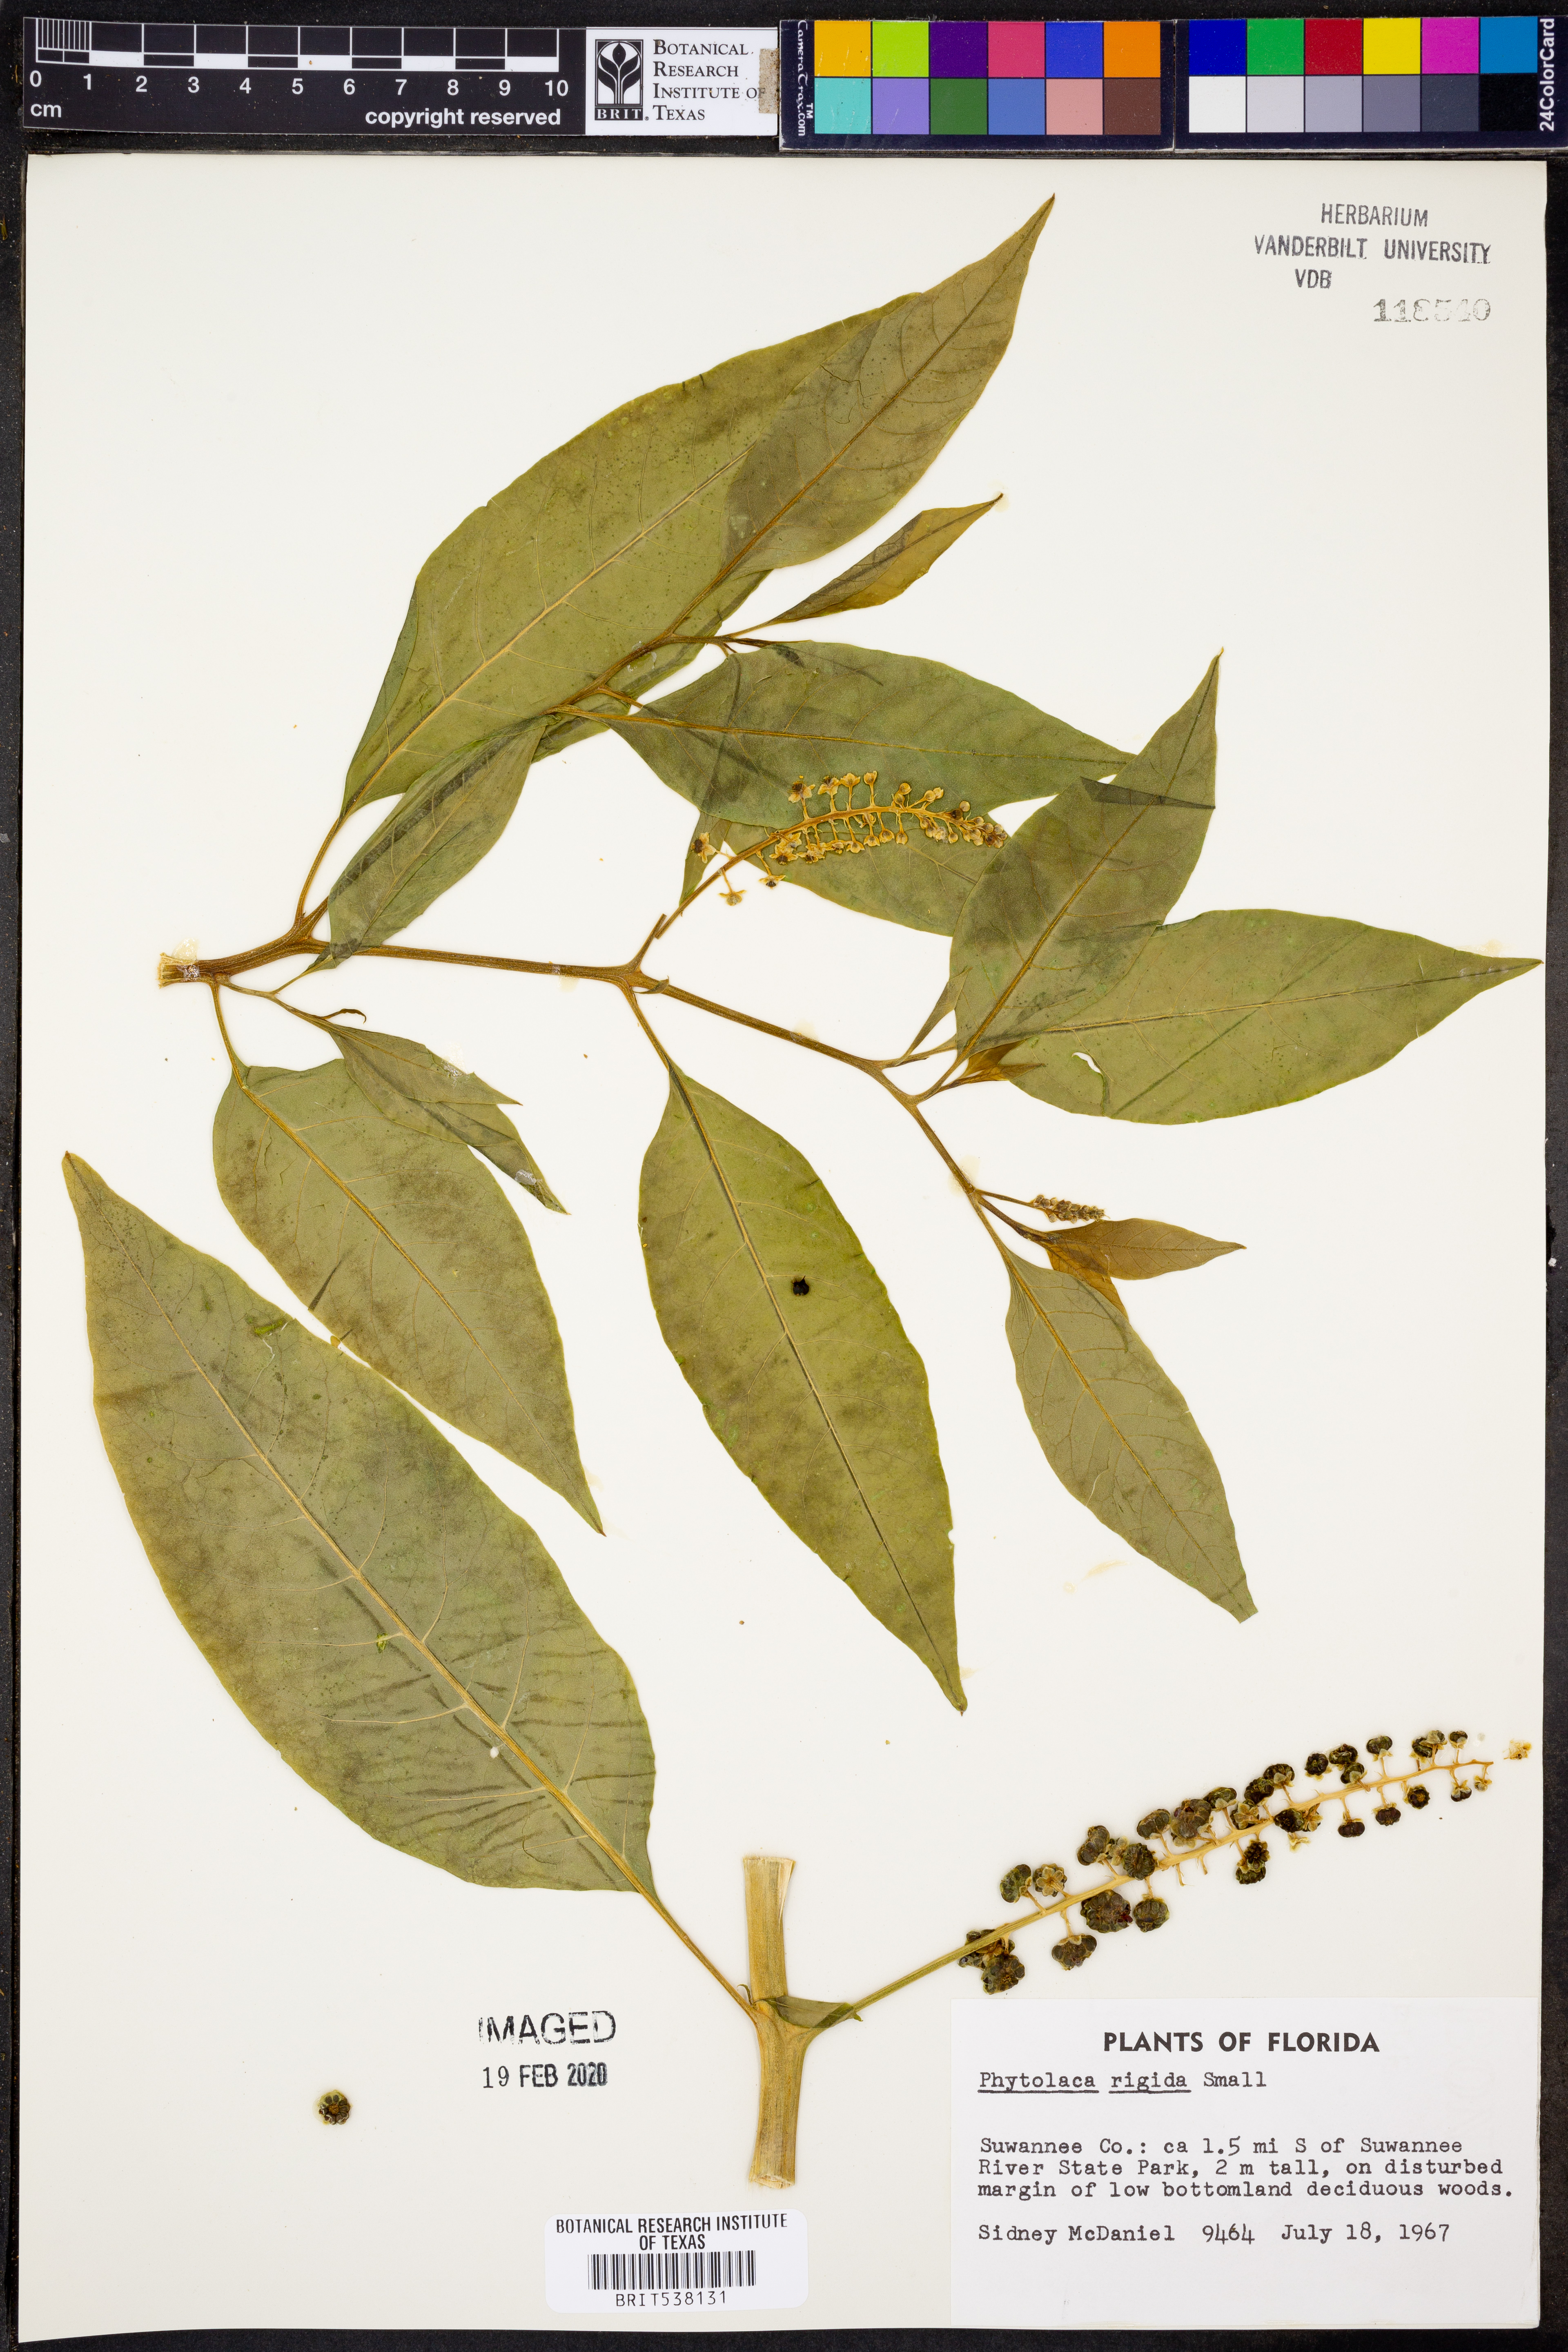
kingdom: Plantae
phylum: Tracheophyta
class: Magnoliopsida
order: Caryophyllales
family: Phytolaccaceae
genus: Phytolacca
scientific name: Phytolacca americana
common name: American pokeweed
